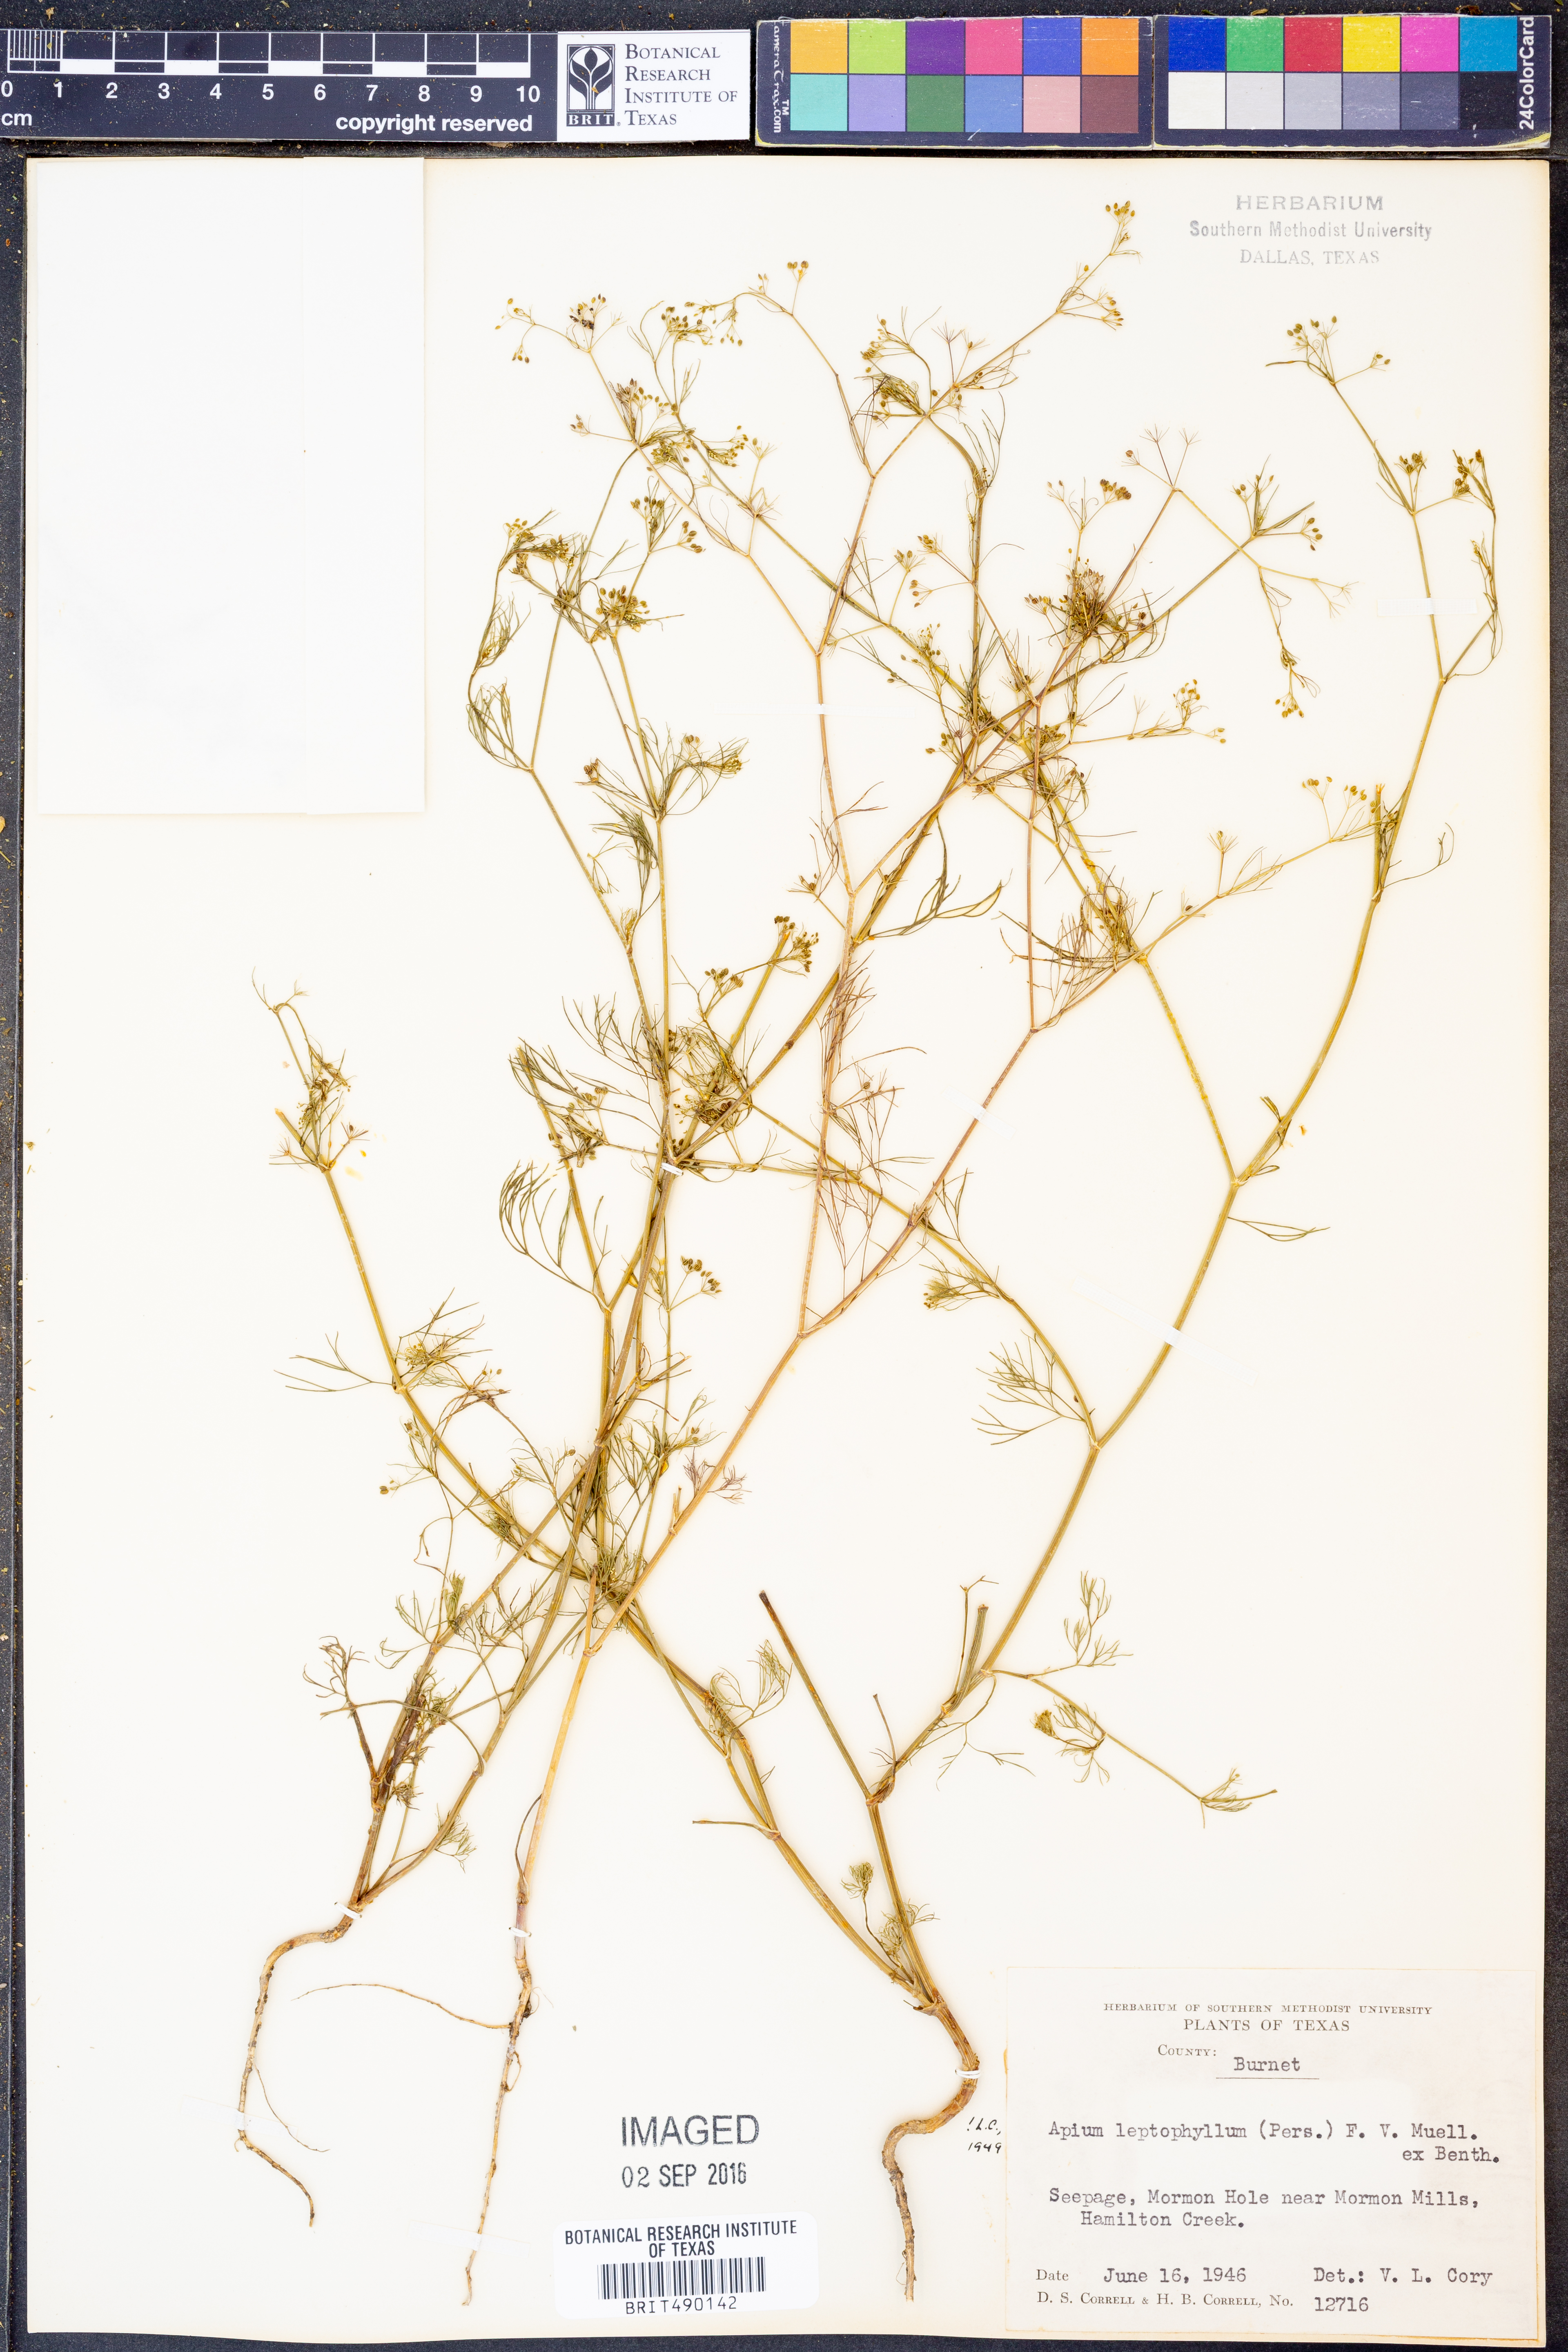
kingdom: Plantae
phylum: Tracheophyta
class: Magnoliopsida
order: Apiales
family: Apiaceae
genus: Cyclospermum
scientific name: Cyclospermum leptophyllum
